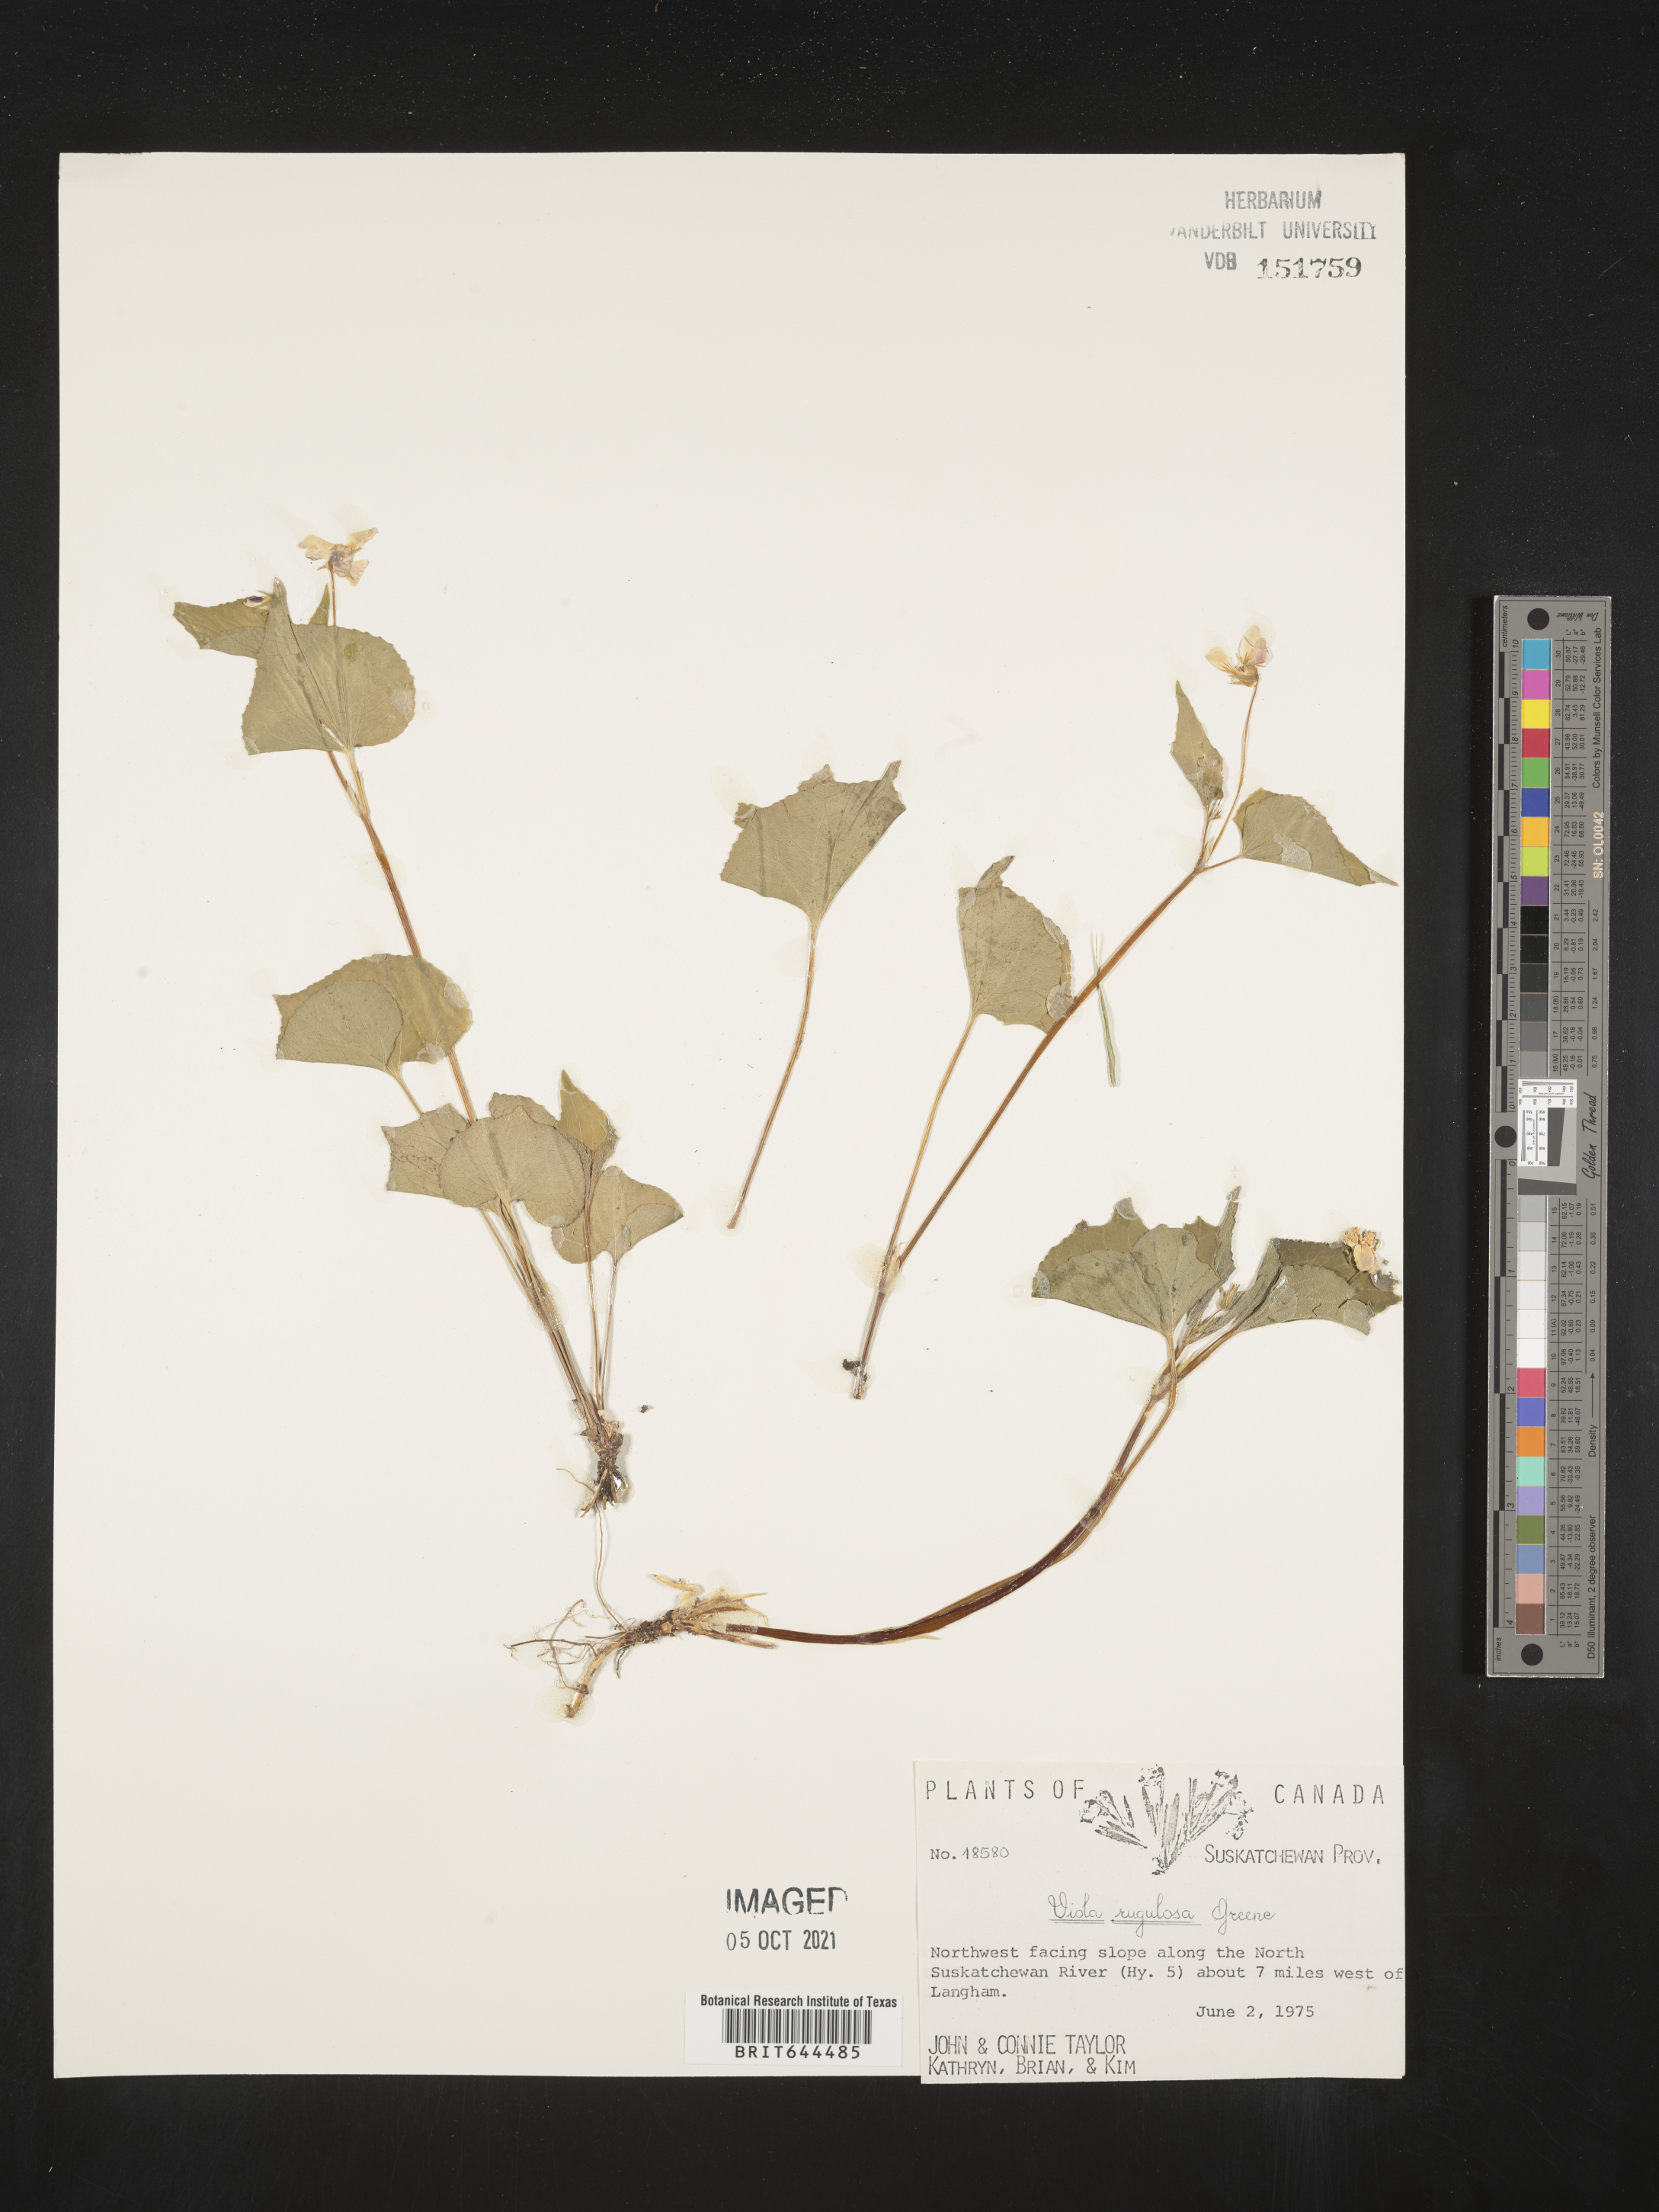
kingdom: Plantae
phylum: Tracheophyta
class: Magnoliopsida
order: Malpighiales
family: Violaceae
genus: Viola
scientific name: Viola
